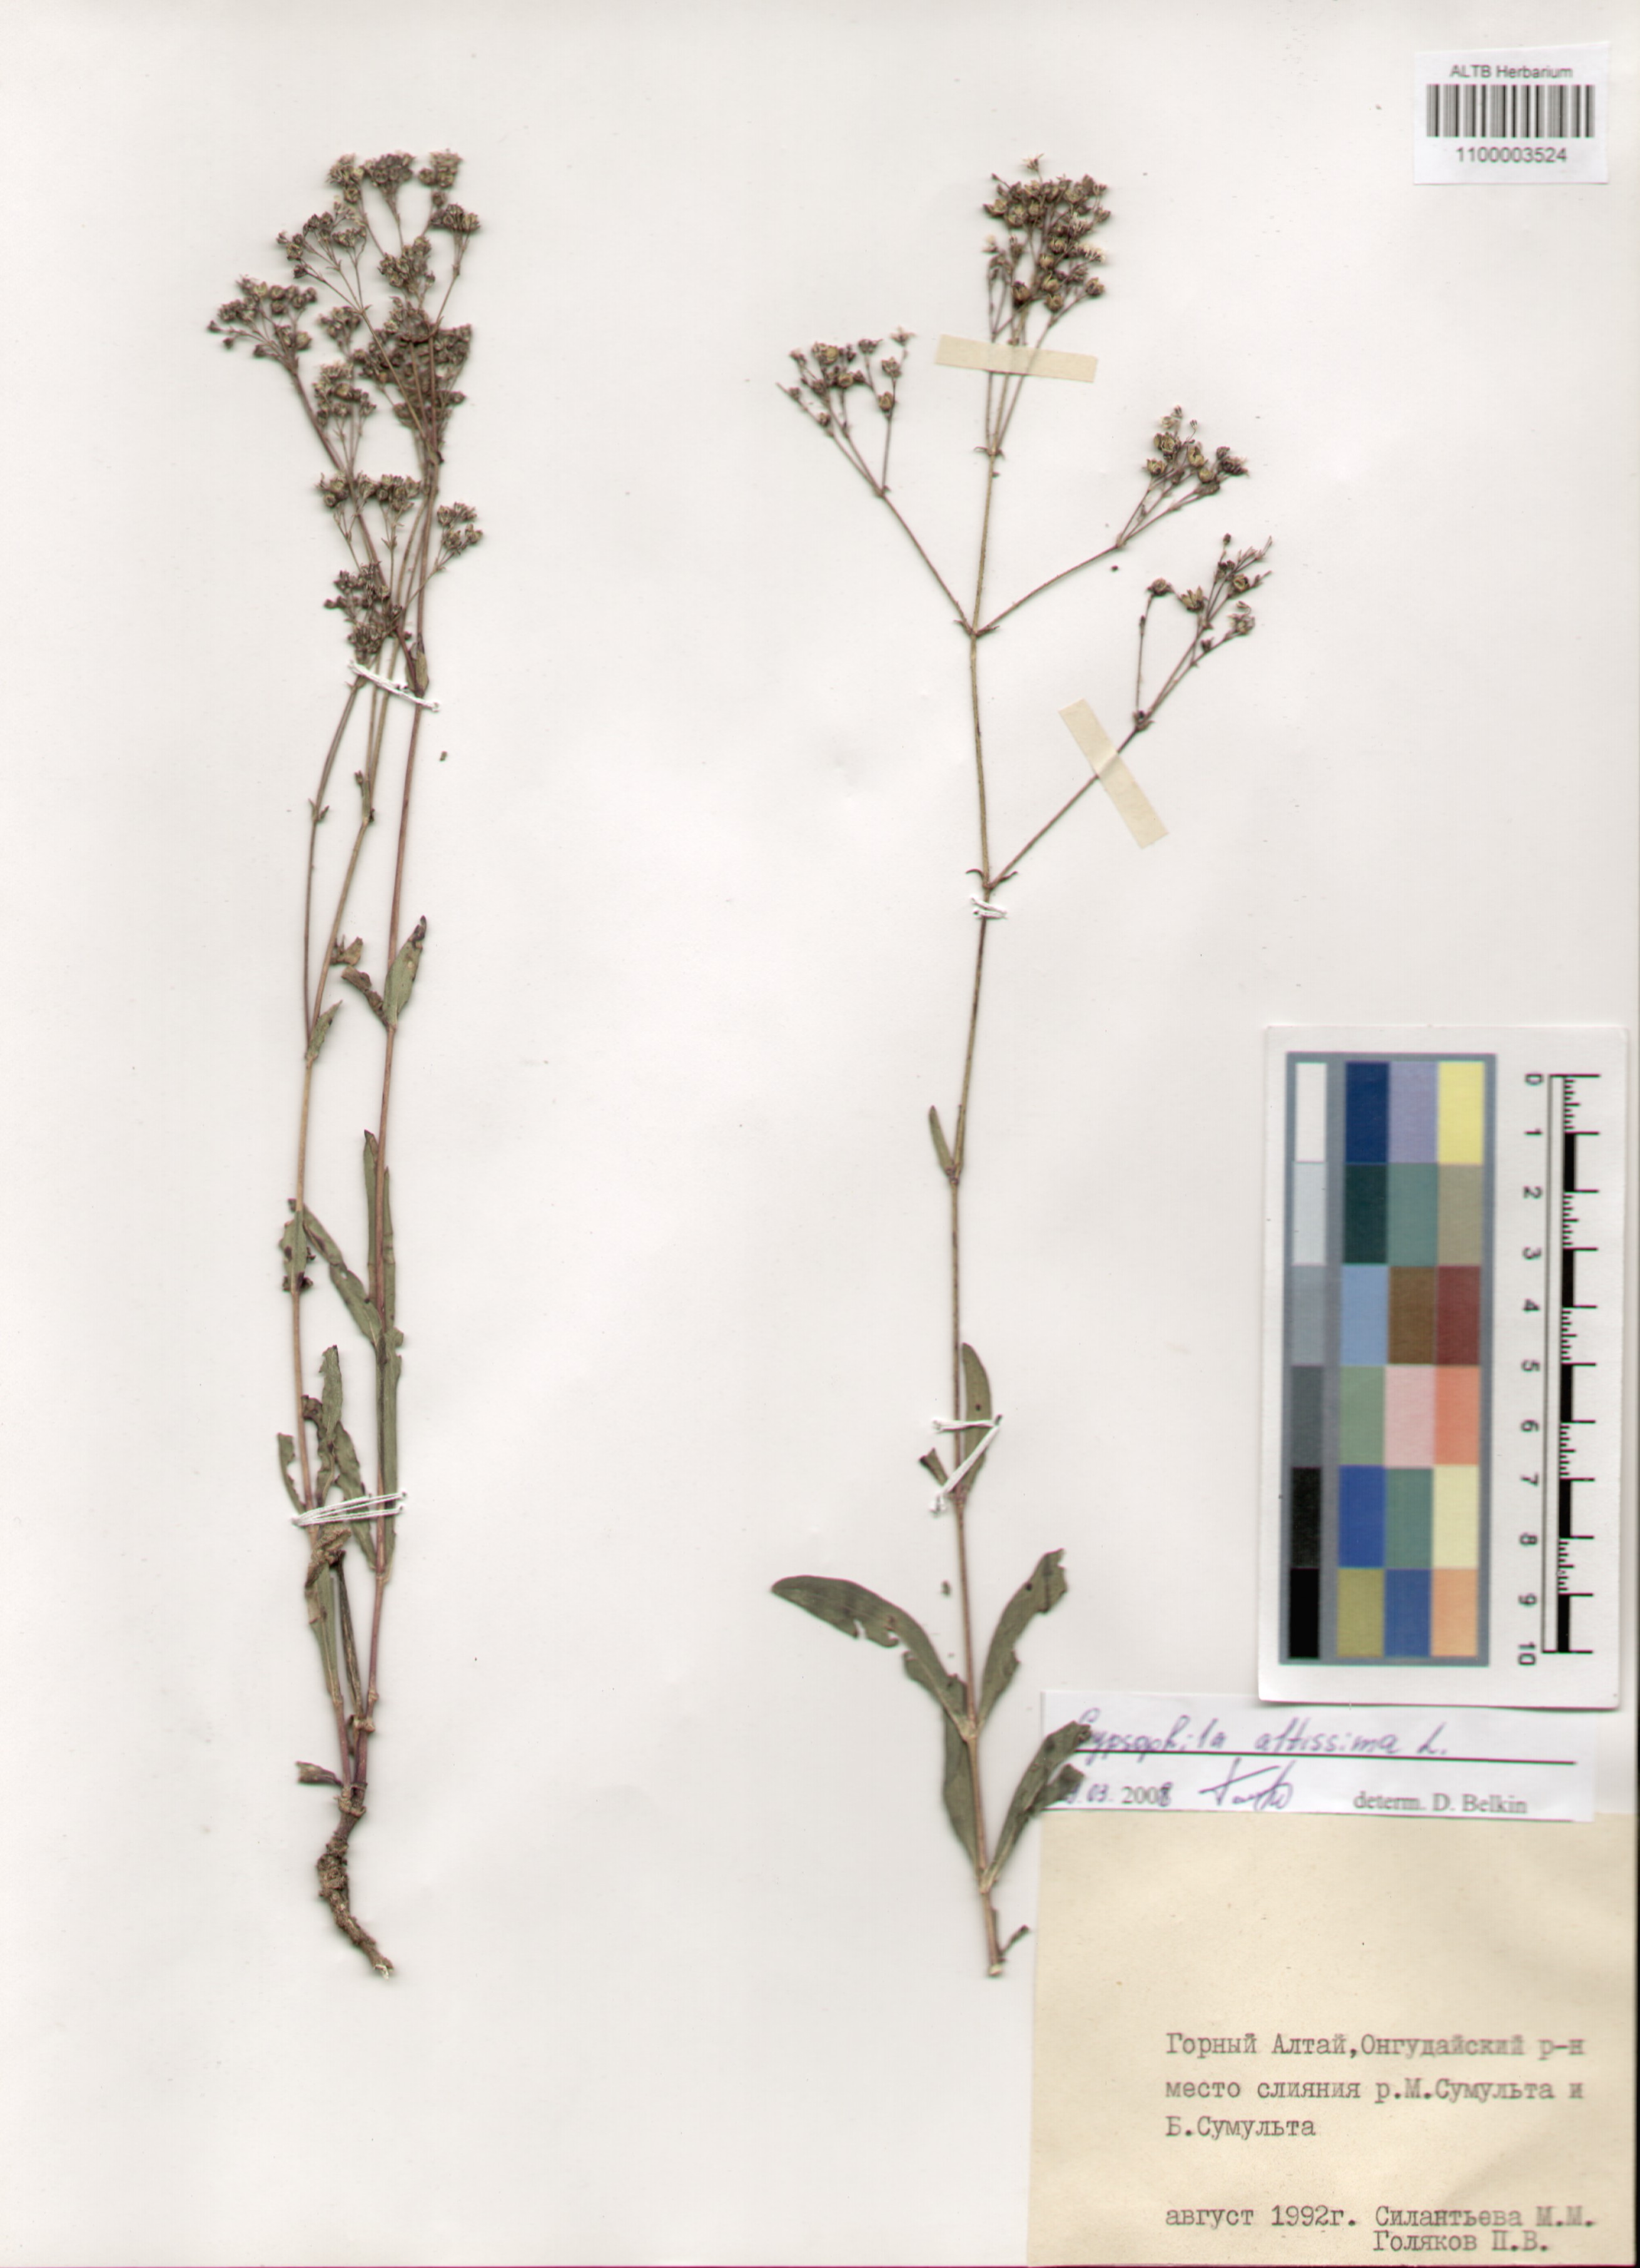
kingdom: Plantae
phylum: Tracheophyta
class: Magnoliopsida
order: Caryophyllales
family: Caryophyllaceae
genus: Gypsophila
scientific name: Gypsophila altissima
